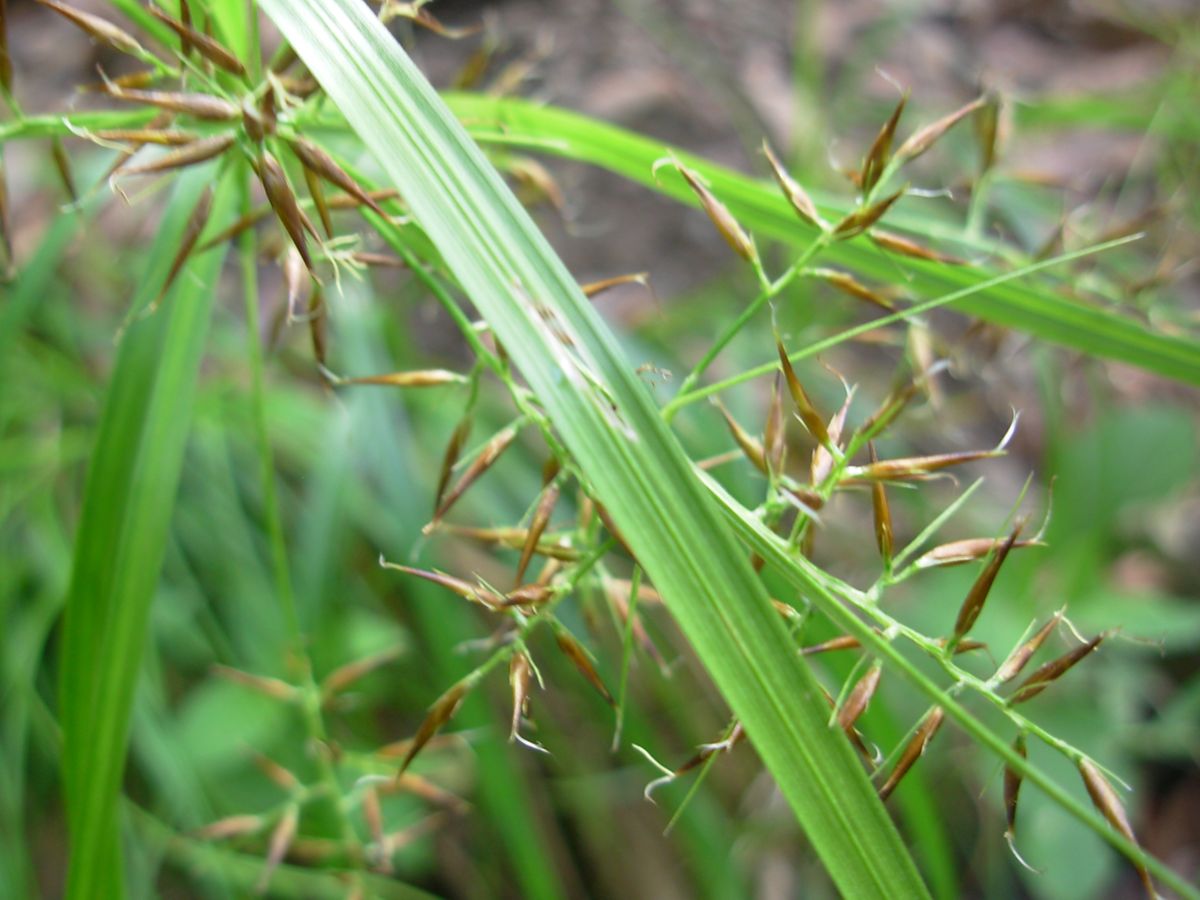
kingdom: Plantae
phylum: Tracheophyta
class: Liliopsida
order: Poales
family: Cyperaceae
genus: Rhynchospora
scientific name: Rhynchospora
